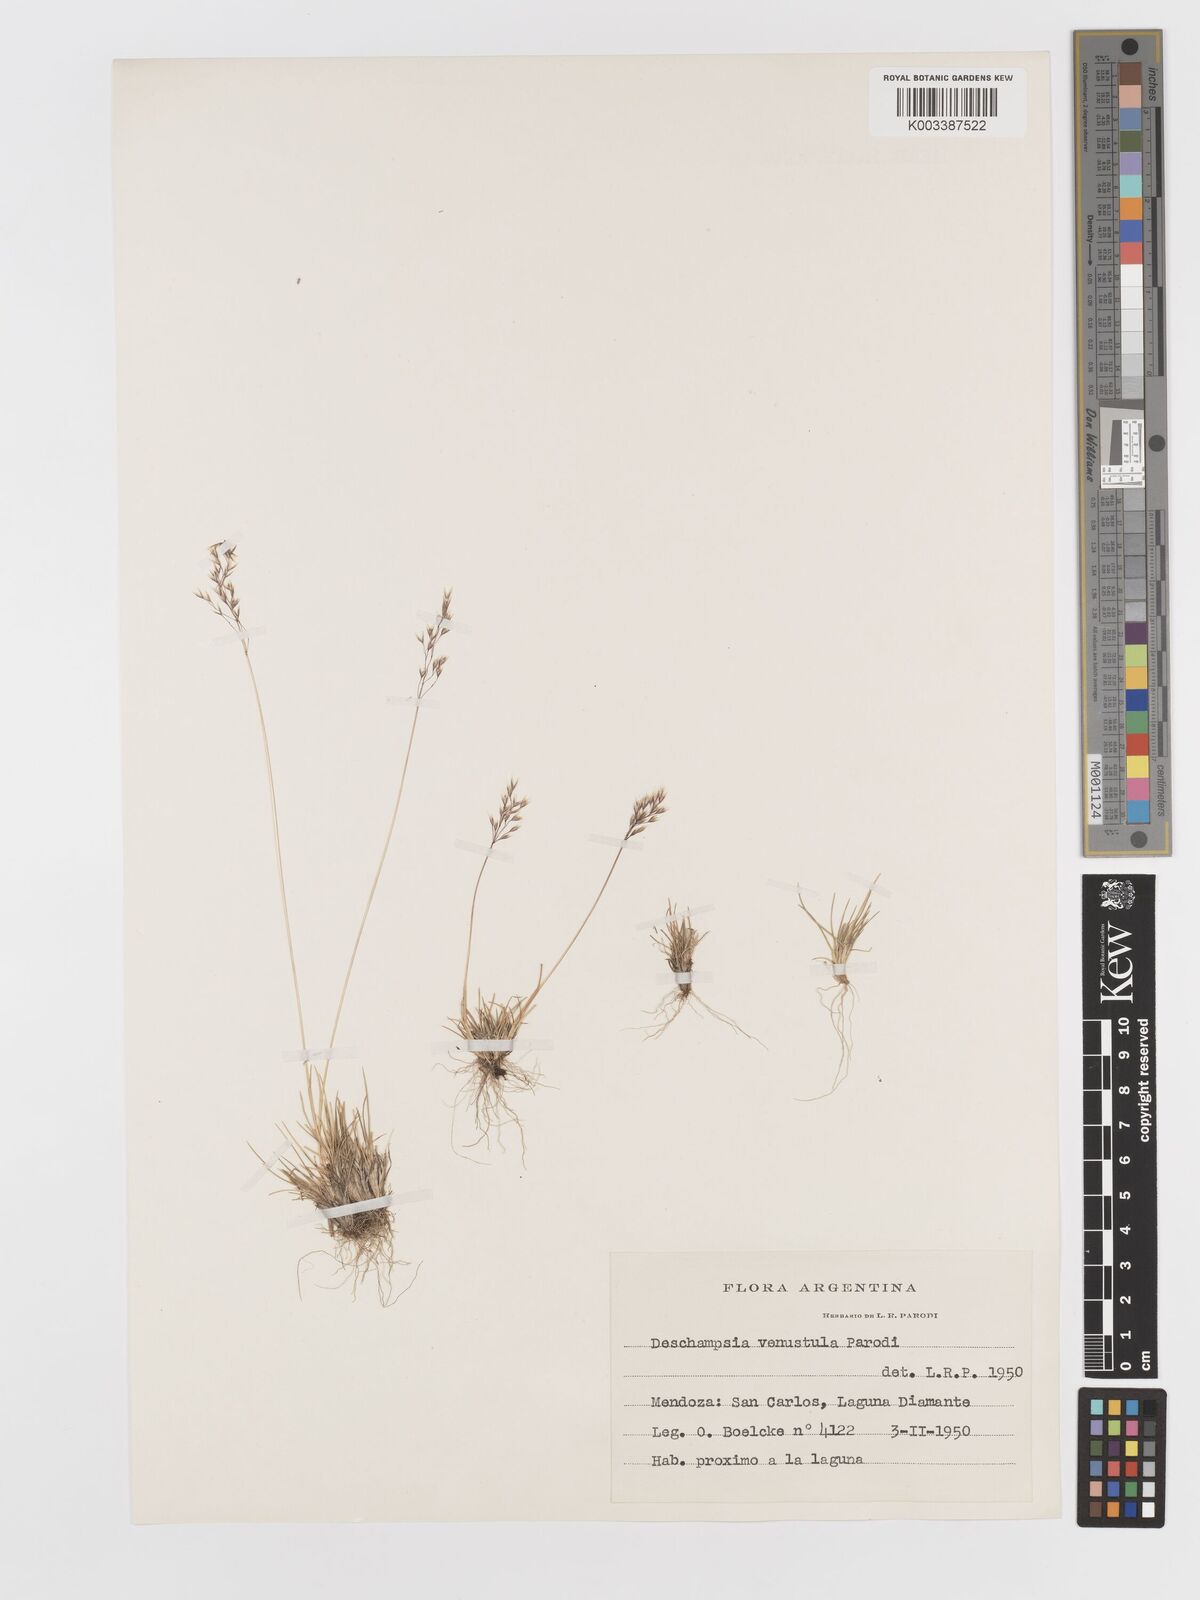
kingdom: Plantae
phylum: Tracheophyta
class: Liliopsida
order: Poales
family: Poaceae
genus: Deschampsia
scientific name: Deschampsia venustula
